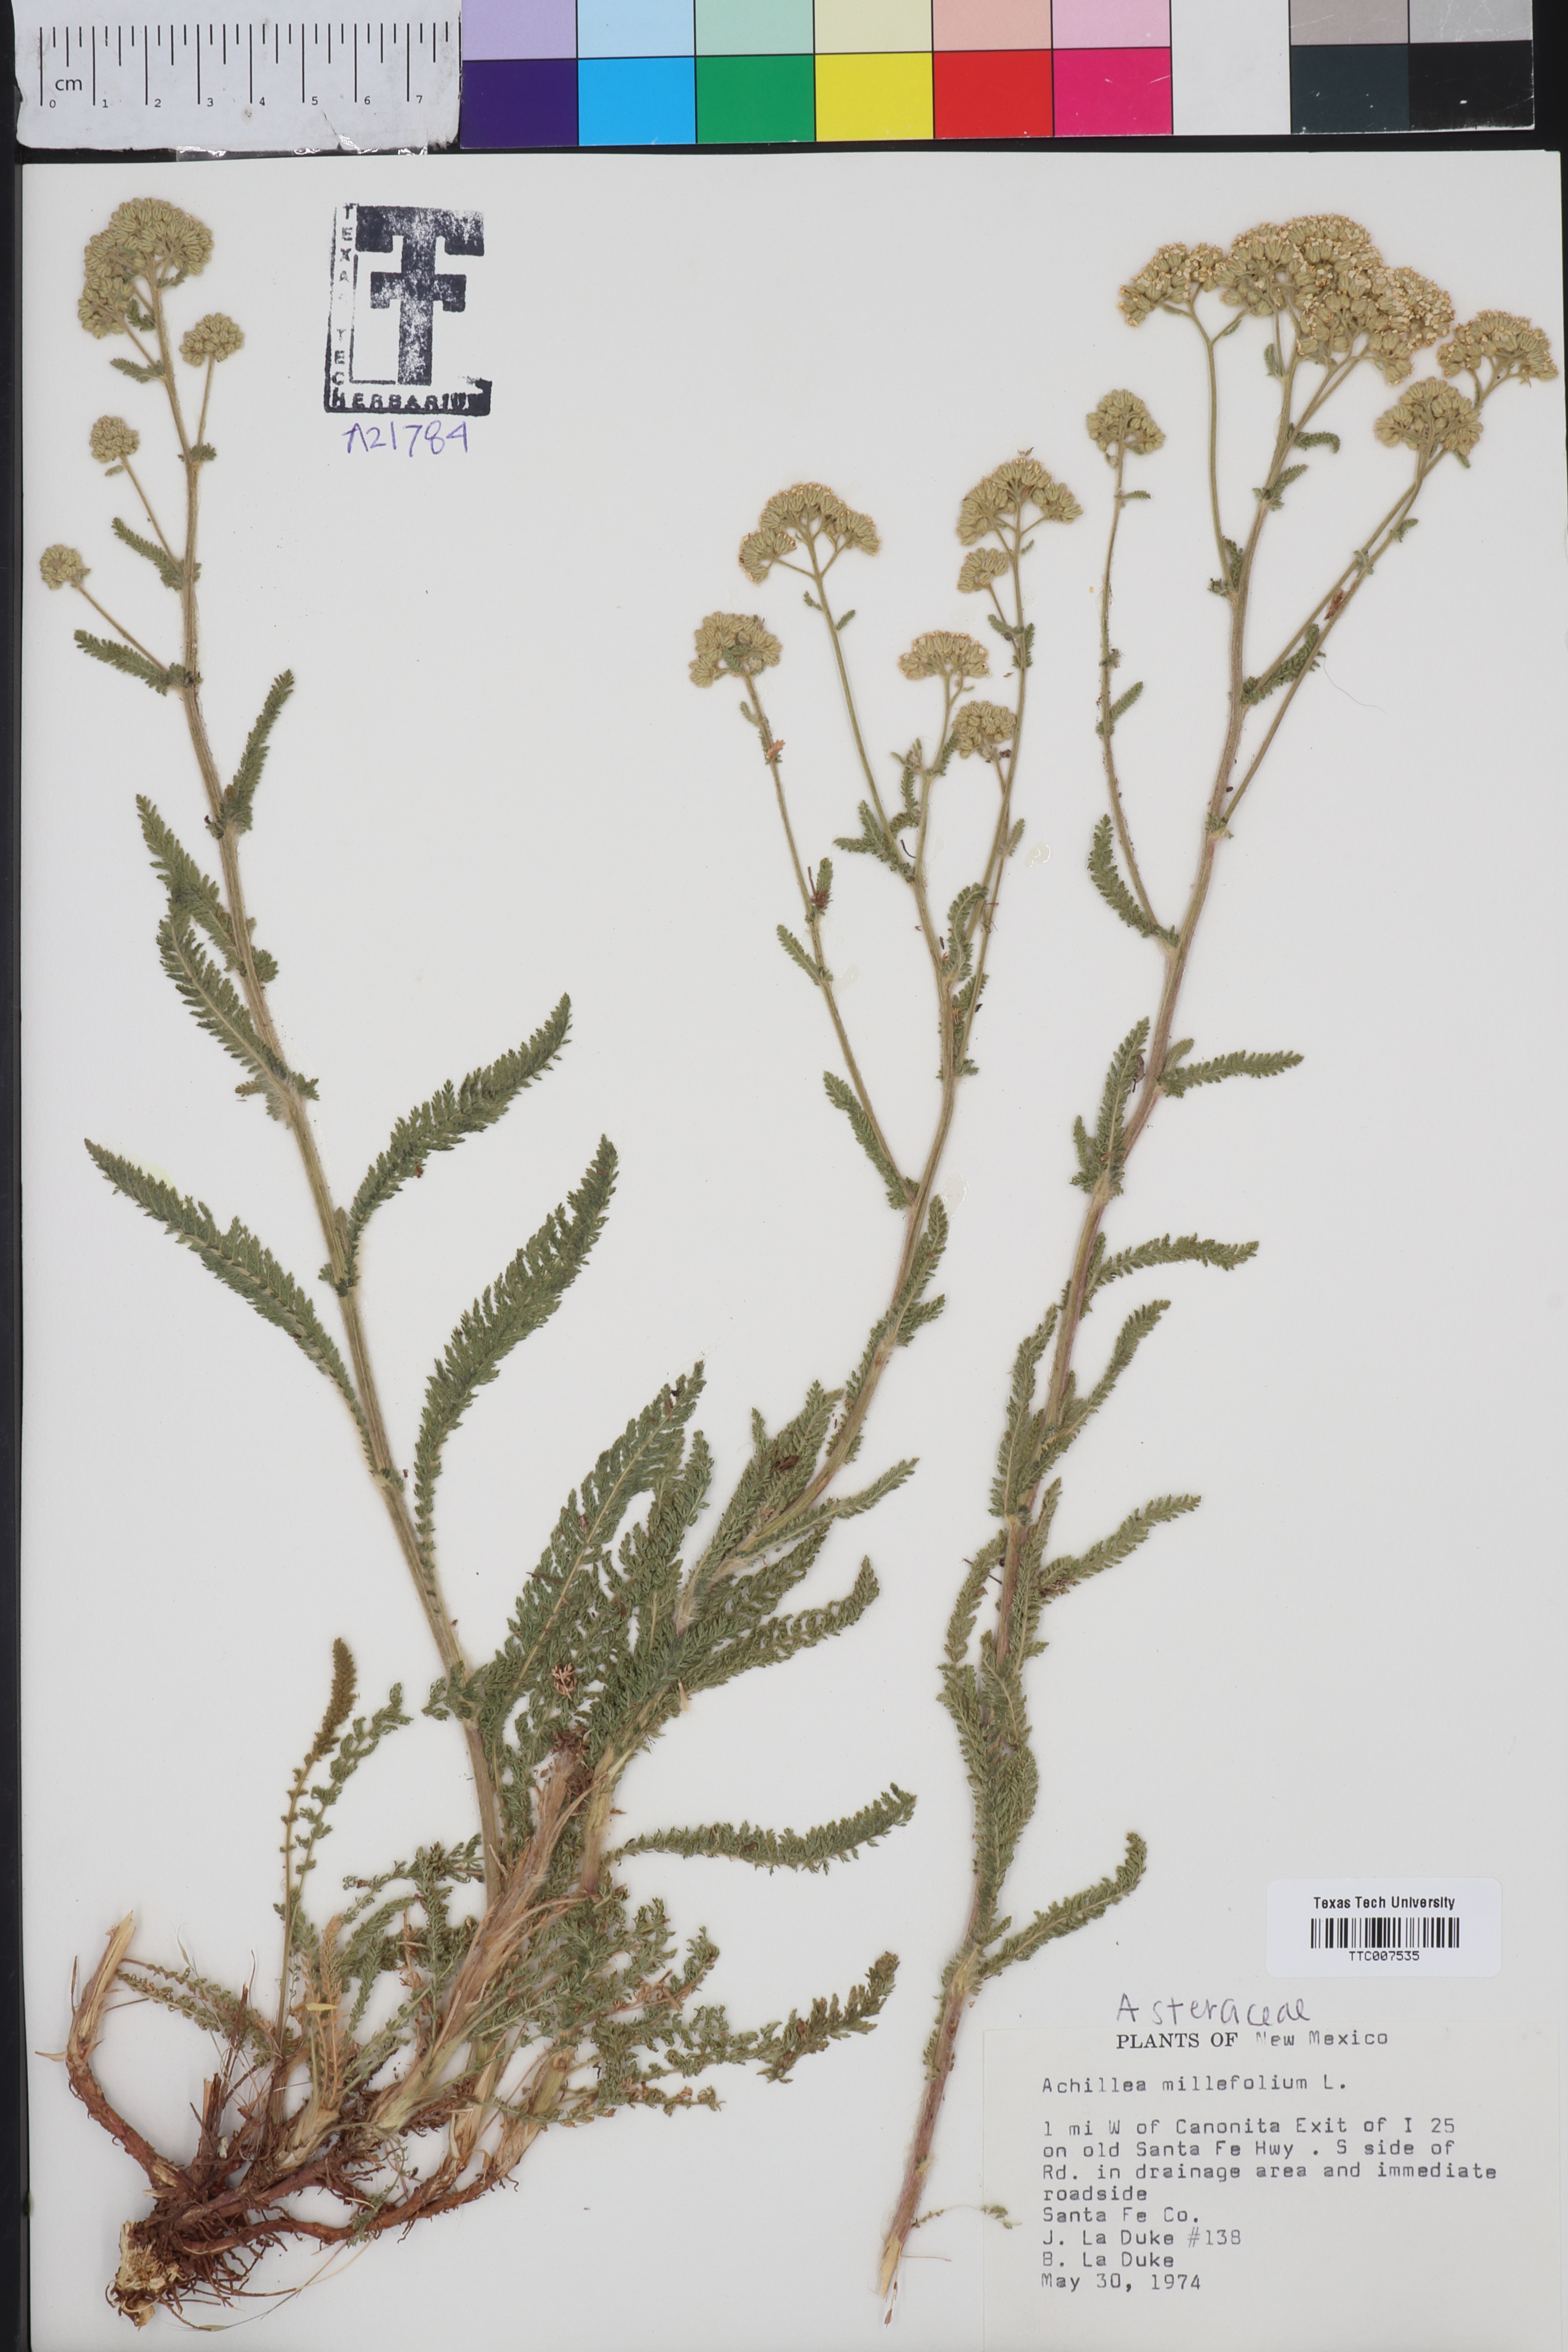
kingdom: Plantae
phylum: Tracheophyta
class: Magnoliopsida
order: Asterales
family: Asteraceae
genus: Achillea
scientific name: Achillea millefolium
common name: Yarrow
